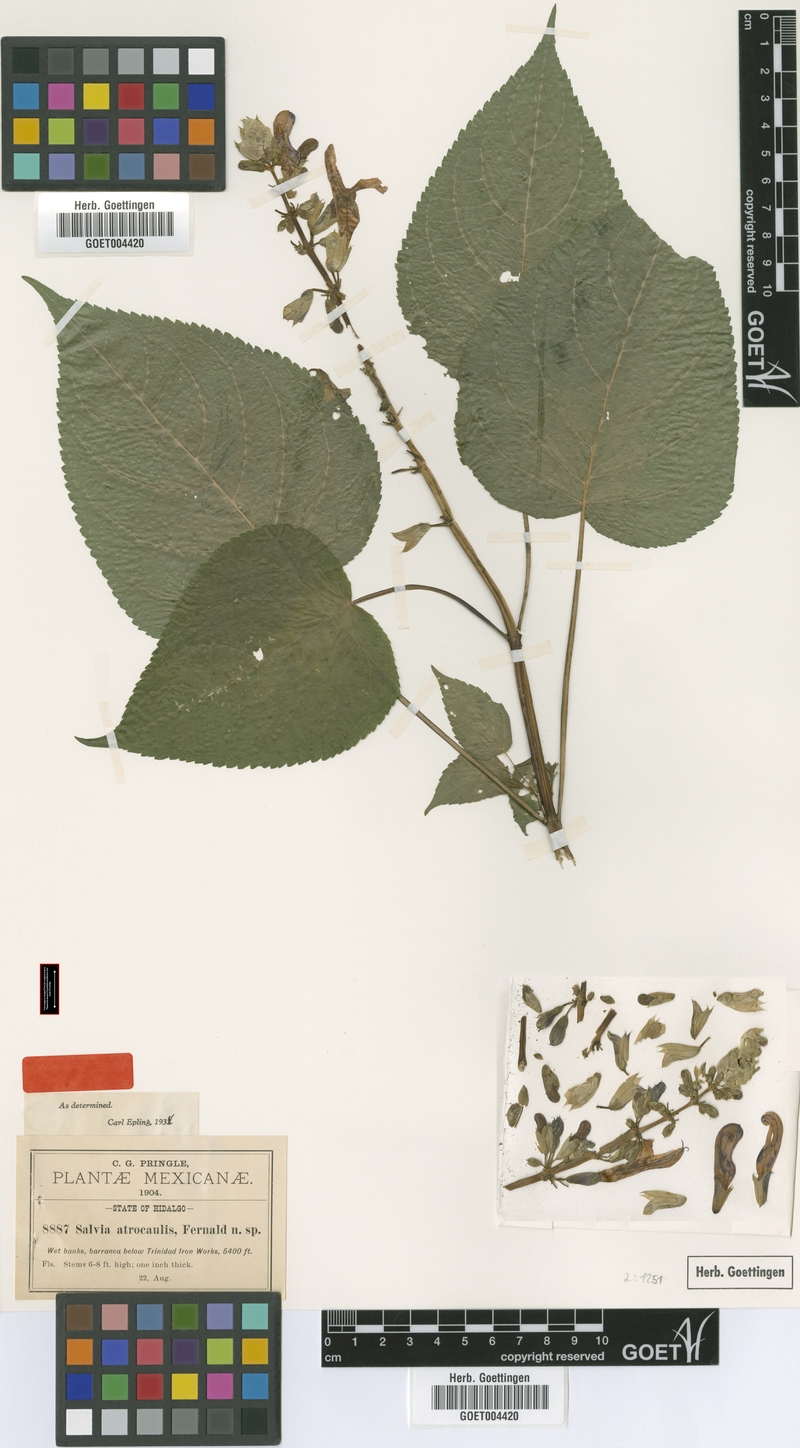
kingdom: Plantae
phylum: Tracheophyta
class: Magnoliopsida
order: Lamiales
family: Lamiaceae
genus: Salvia
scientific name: Salvia recurva
